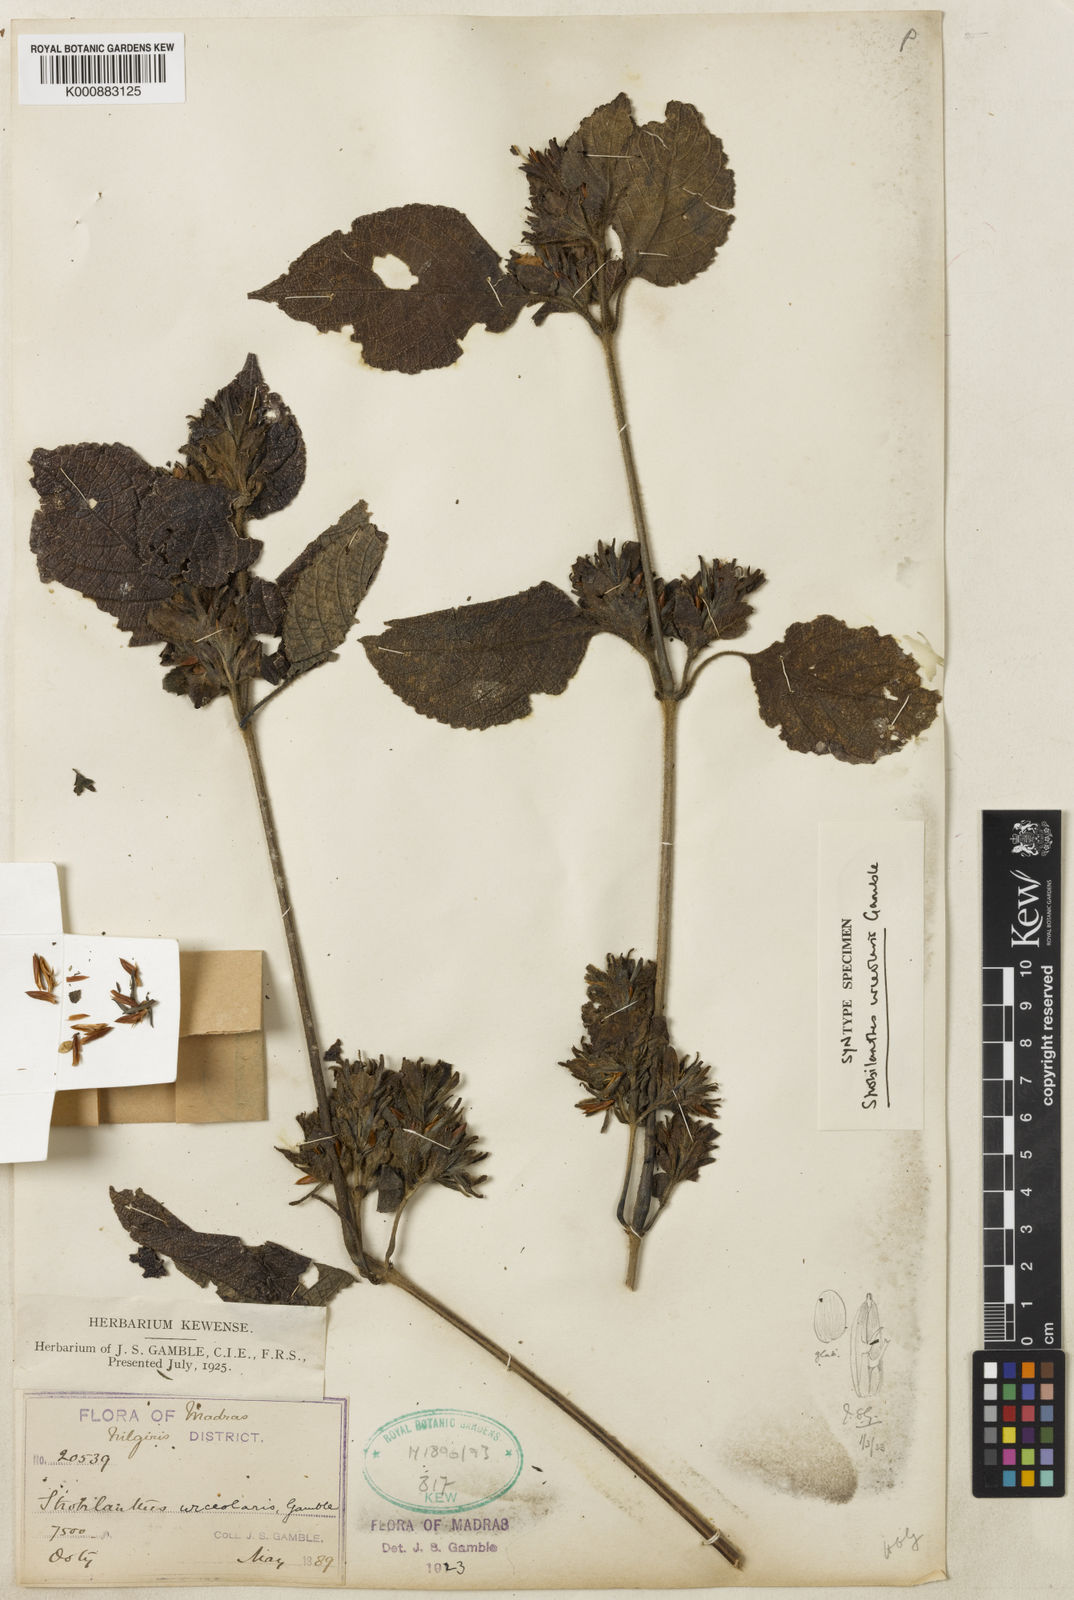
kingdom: Plantae
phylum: Tracheophyta
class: Magnoliopsida
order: Lamiales
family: Acanthaceae
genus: Strobilanthes
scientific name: Strobilanthes urceolaris
